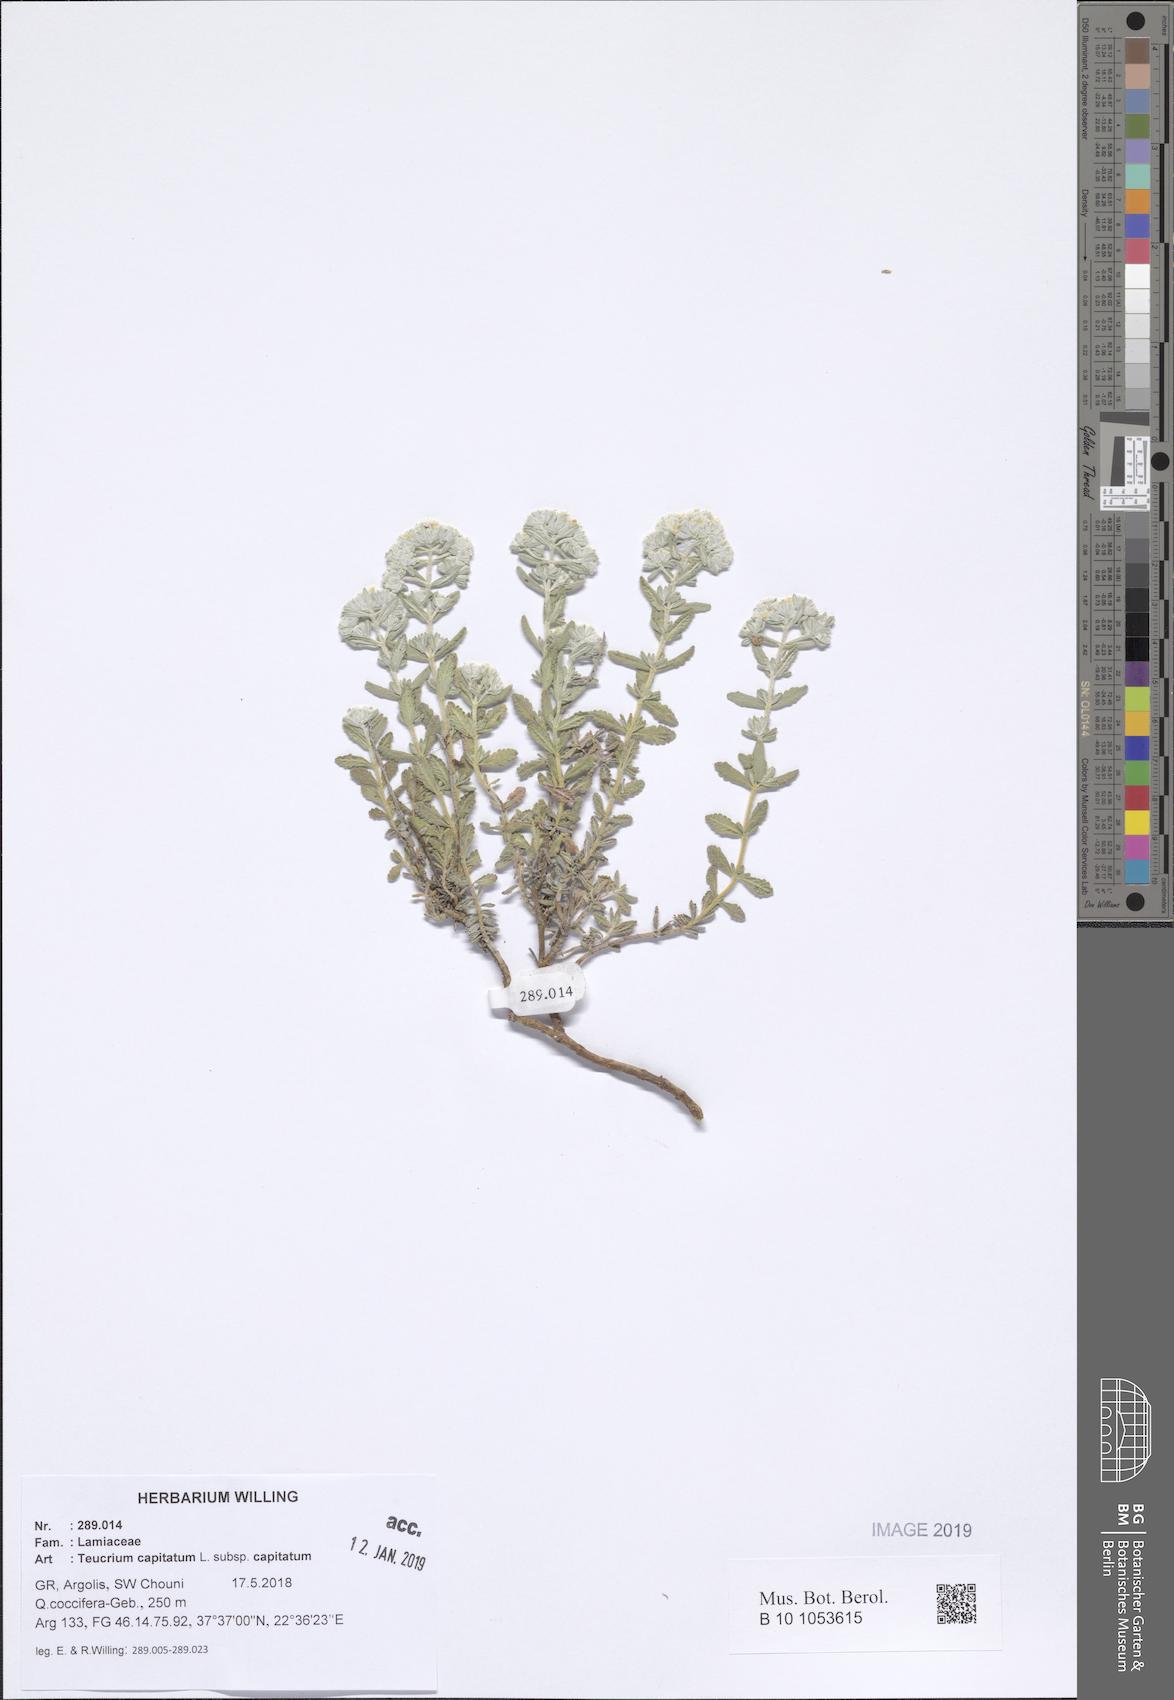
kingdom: Plantae
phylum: Tracheophyta
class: Magnoliopsida
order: Lamiales
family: Lamiaceae
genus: Teucrium
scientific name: Teucrium capitatum
